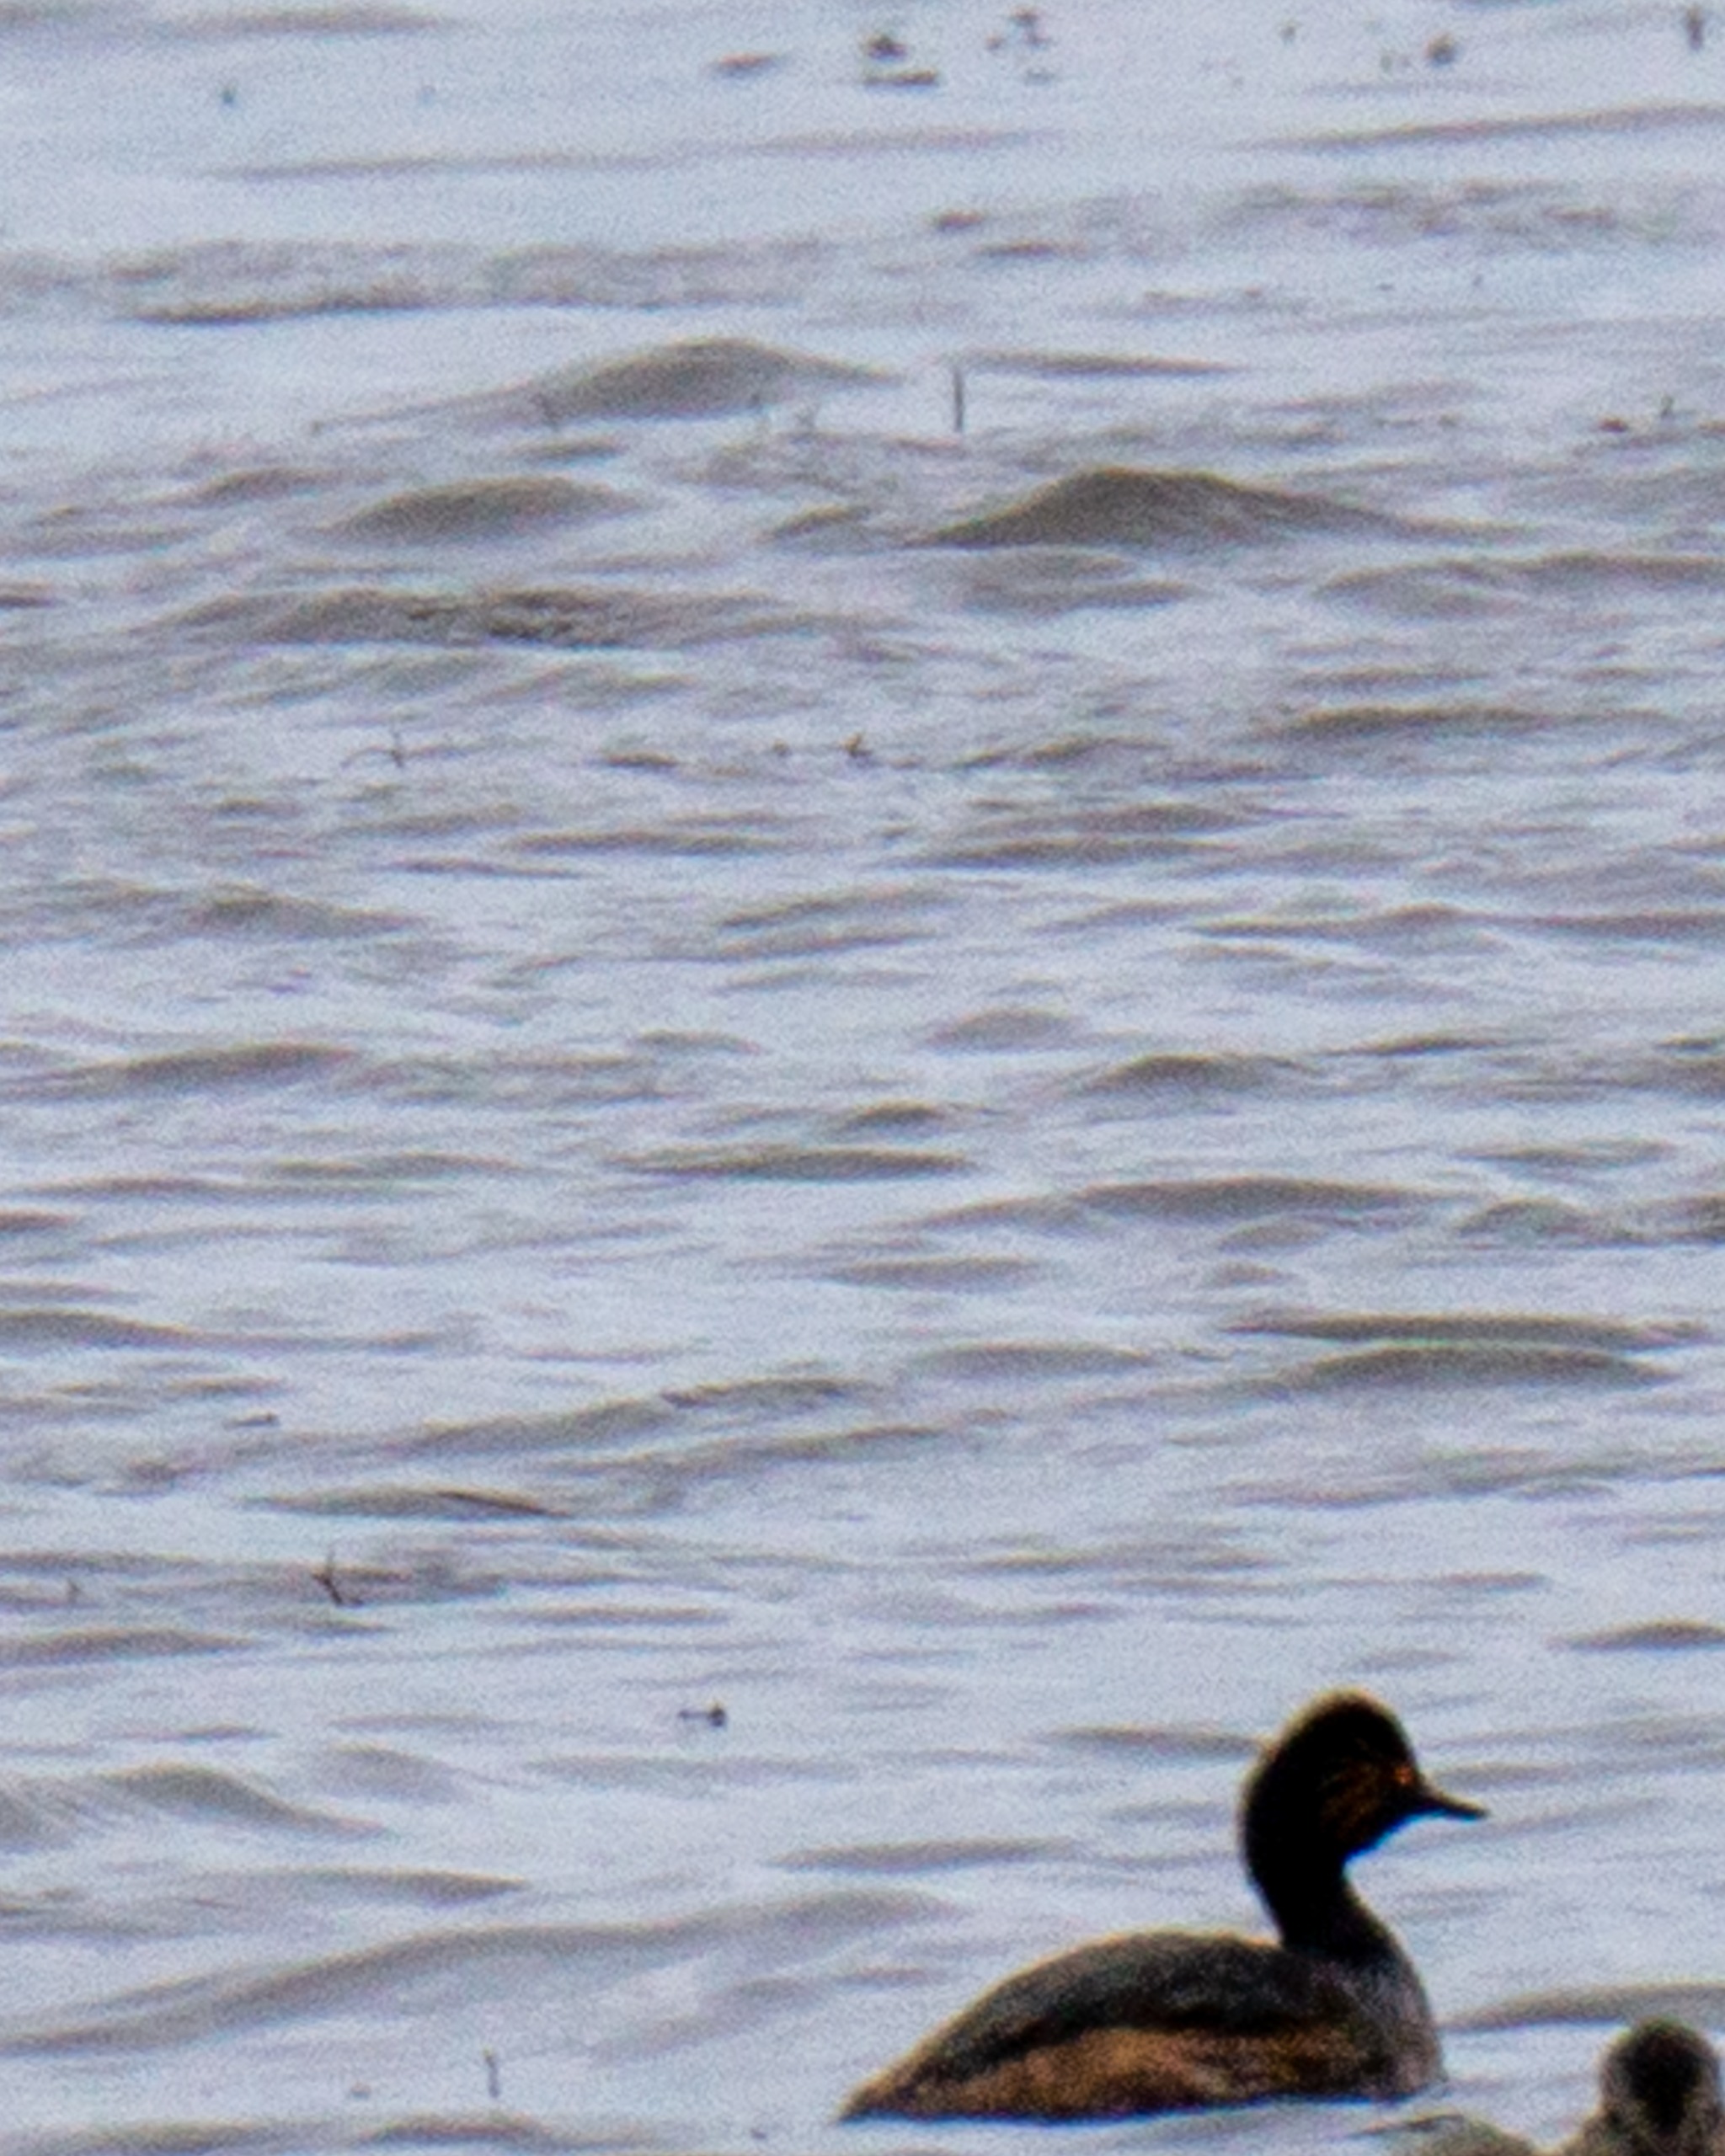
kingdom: Animalia
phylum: Chordata
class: Aves
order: Podicipediformes
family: Podicipedidae
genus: Podiceps
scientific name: Podiceps nigricollis
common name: Sorthalset lappedykker
